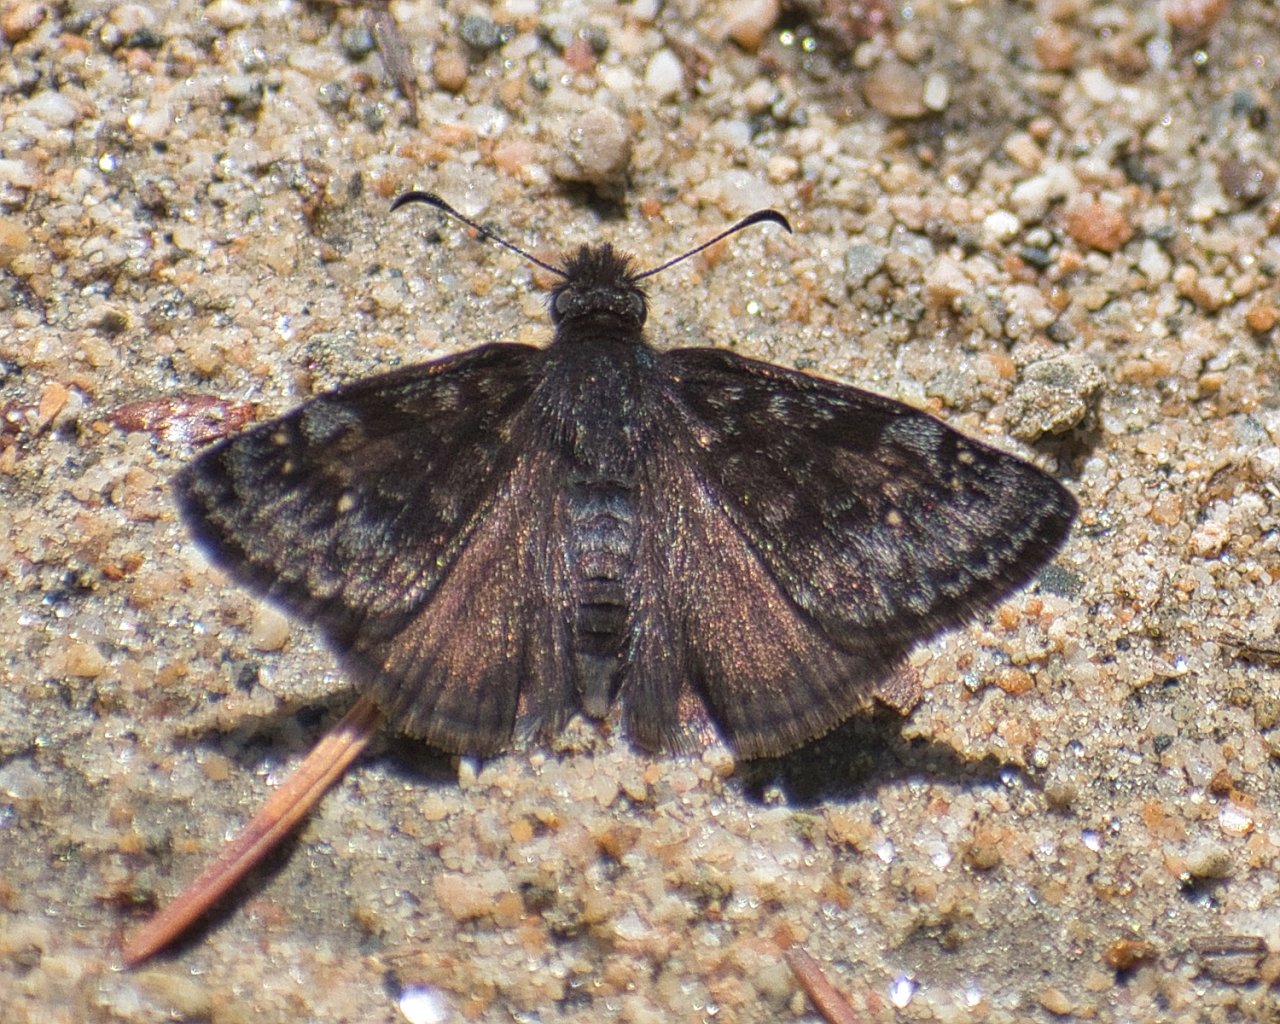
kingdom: Animalia
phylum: Arthropoda
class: Insecta
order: Lepidoptera
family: Hesperiidae
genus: Erynnis
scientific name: Erynnis pacuvius
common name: Pacuvius Duskywing
